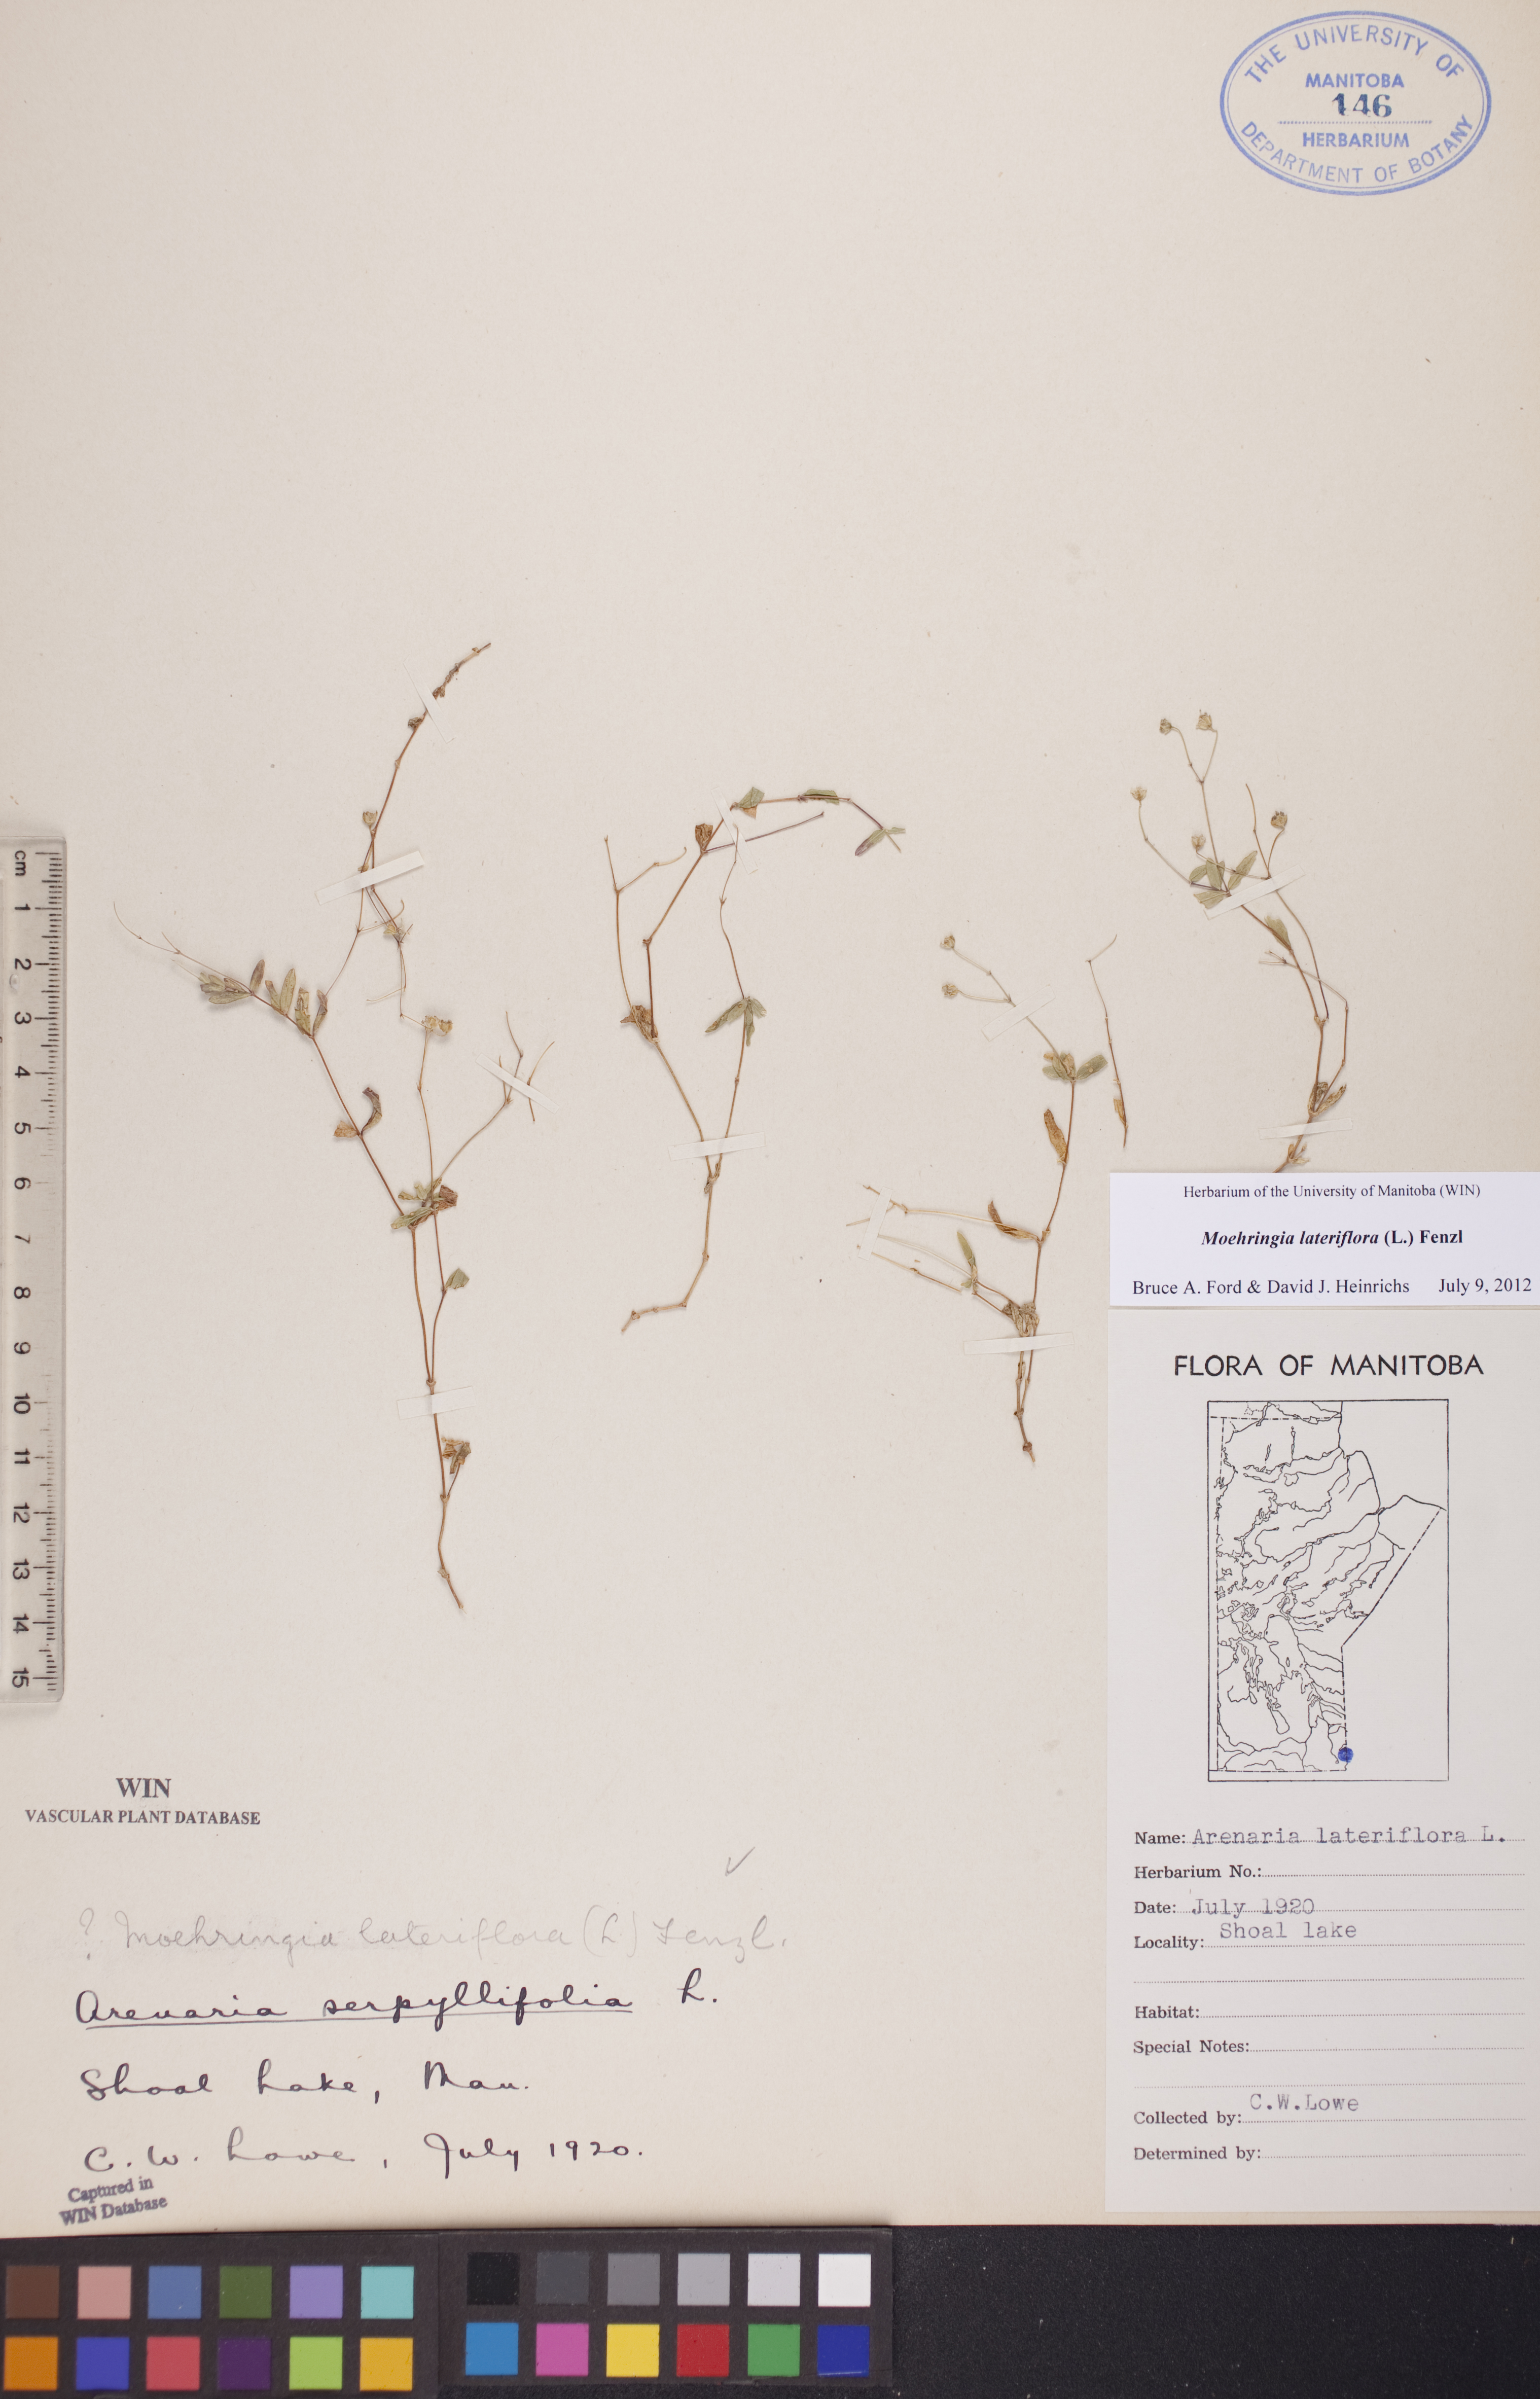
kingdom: Plantae
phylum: Tracheophyta
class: Magnoliopsida
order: Caryophyllales
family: Caryophyllaceae
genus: Moehringia
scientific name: Moehringia lateriflora
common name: Blunt-leaved sandwort
